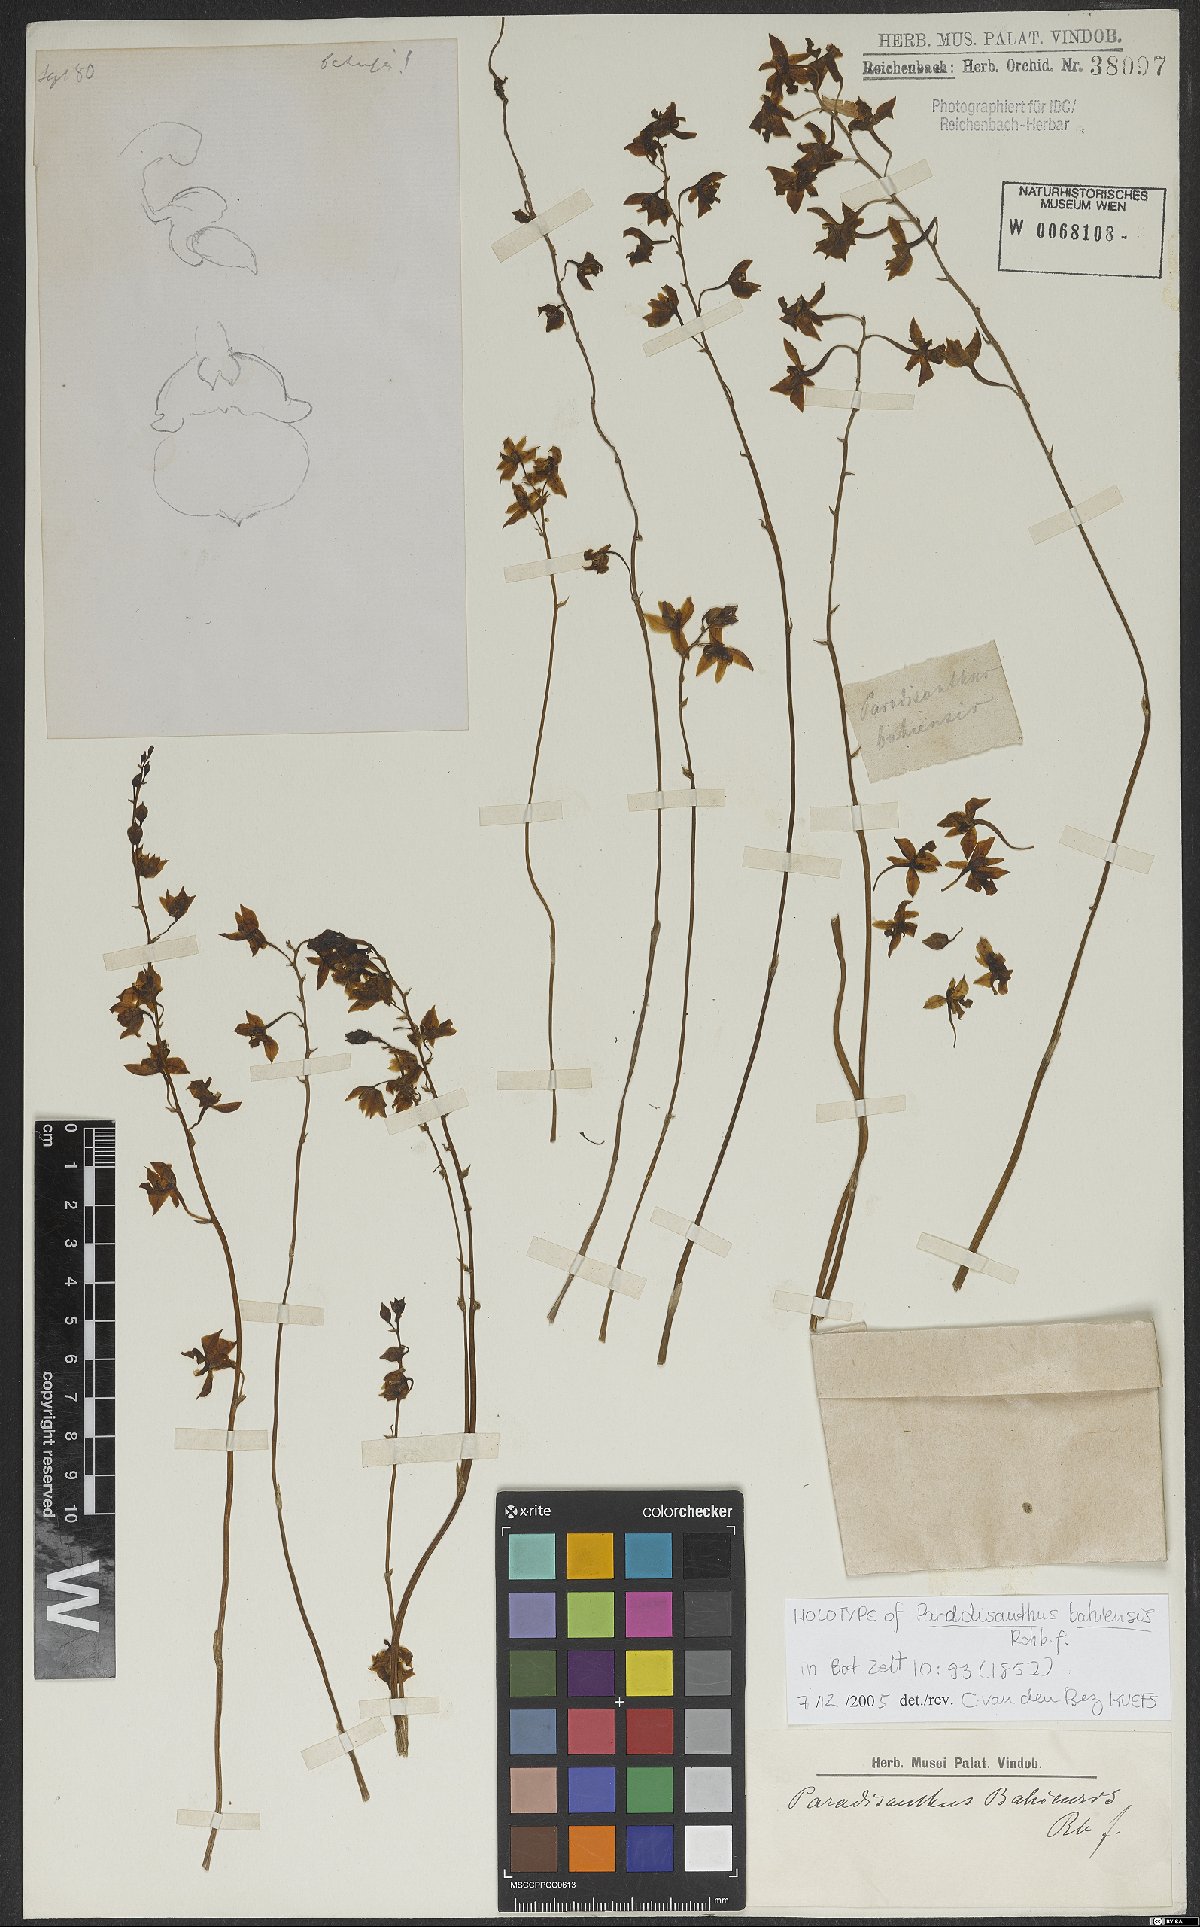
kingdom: Plantae
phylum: Tracheophyta
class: Liliopsida
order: Asparagales
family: Orchidaceae
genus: Paradisanthus
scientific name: Paradisanthus bahiensis
